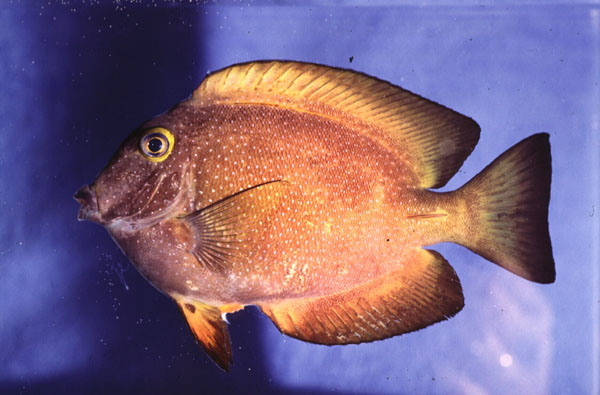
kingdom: Animalia
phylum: Chordata
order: Perciformes
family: Acanthuridae
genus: Ctenochaetus
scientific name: Ctenochaetus truncatus
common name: Indian gold-ring bristle-tooth
